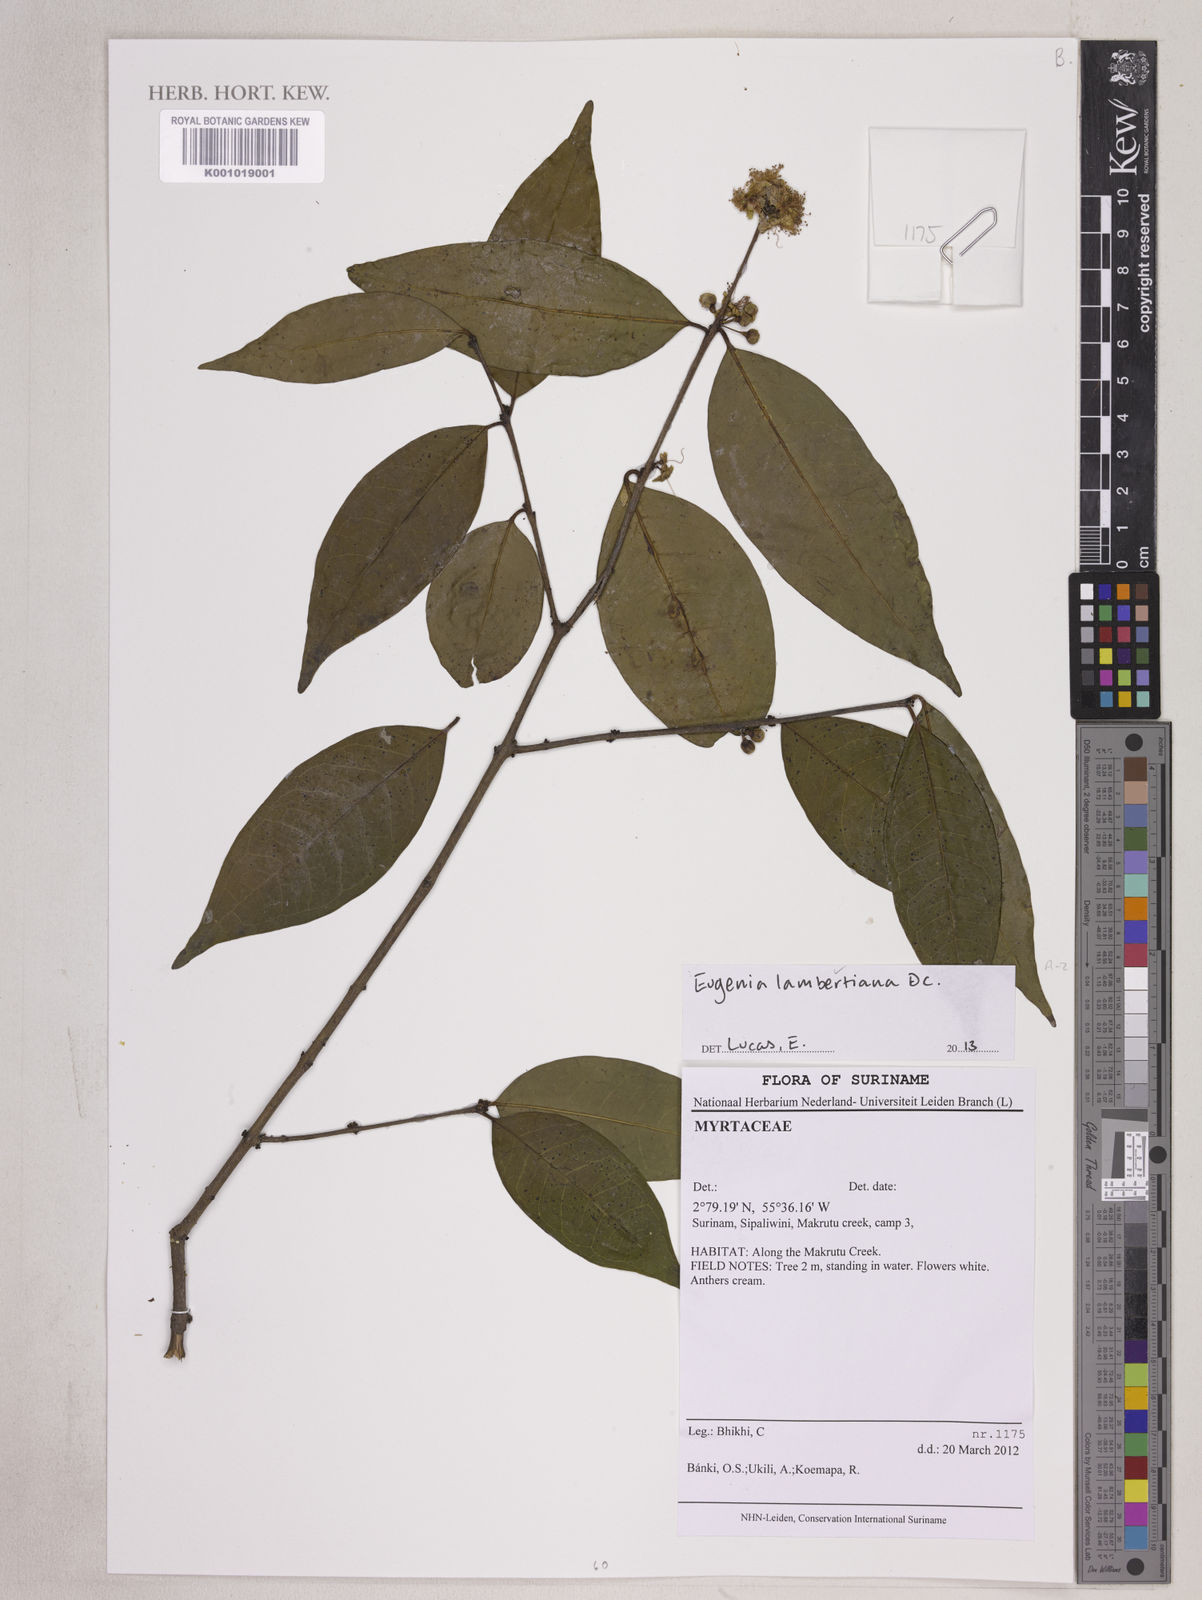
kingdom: Plantae
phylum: Tracheophyta
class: Magnoliopsida
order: Myrtales
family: Myrtaceae
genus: Eugenia
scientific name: Eugenia lambertiana
